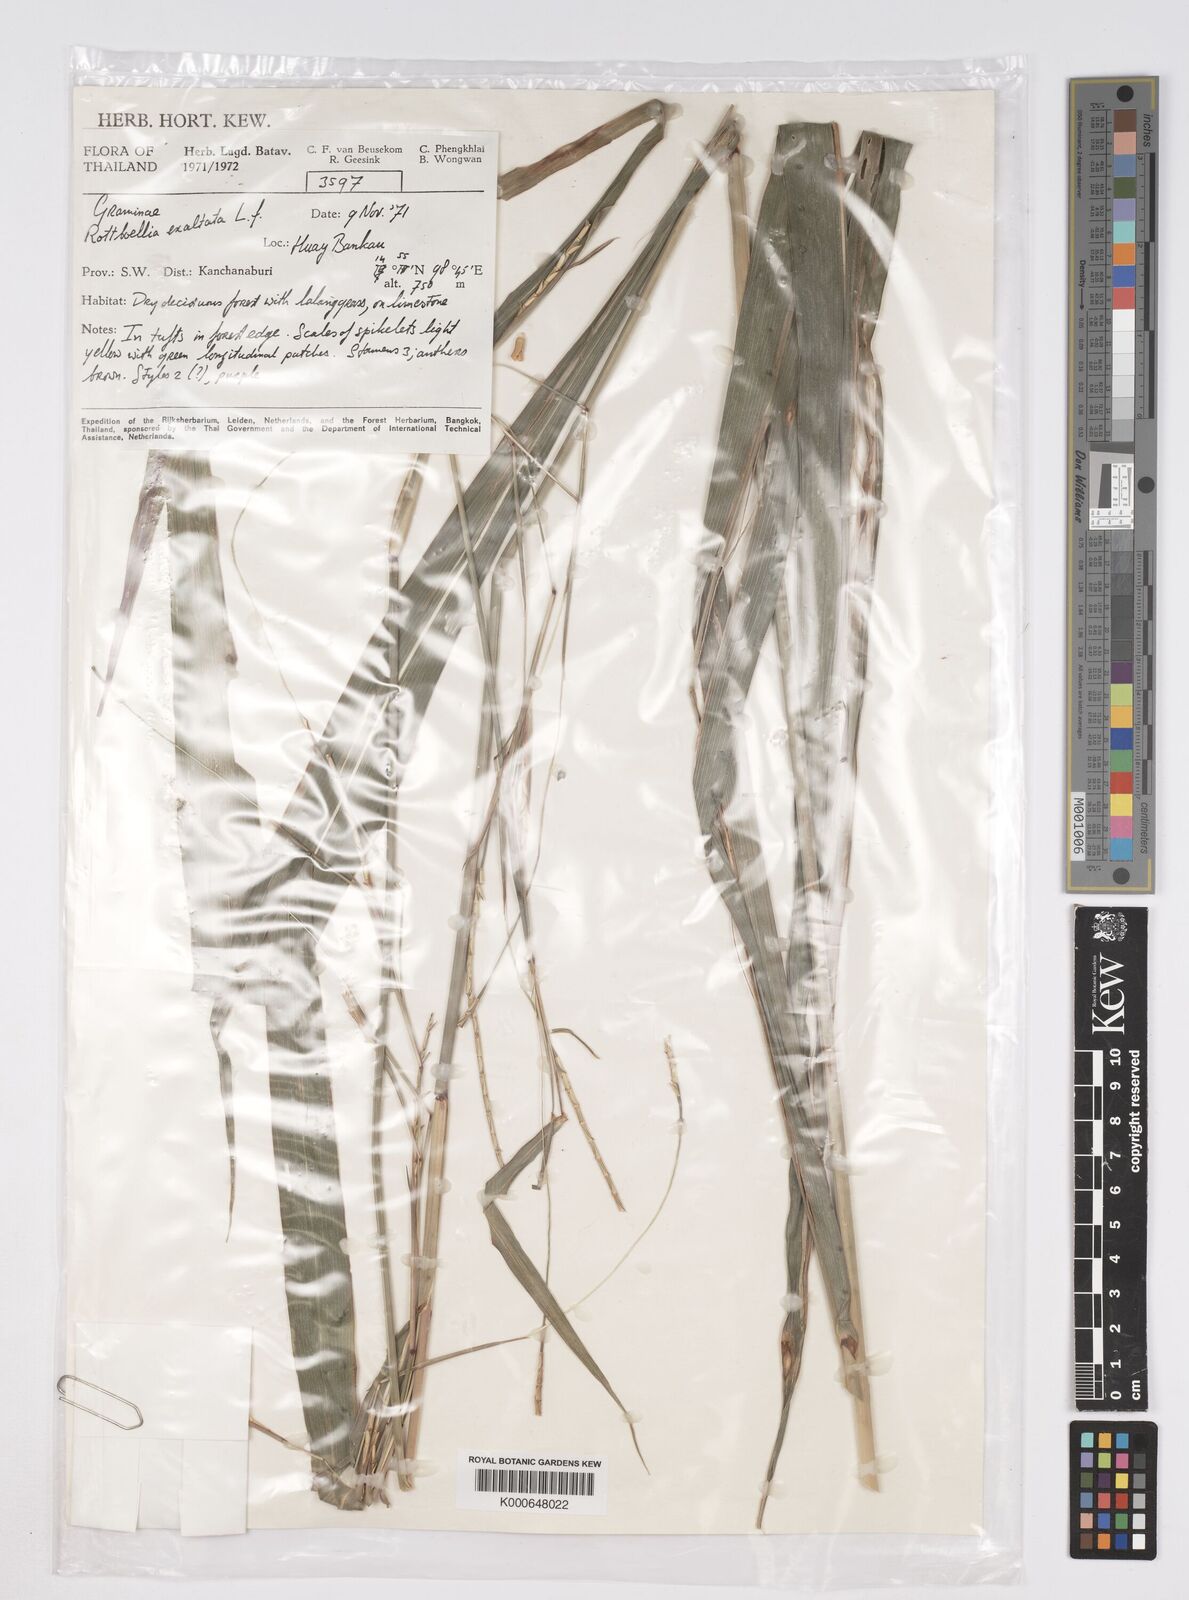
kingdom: Plantae
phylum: Tracheophyta
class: Liliopsida
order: Poales
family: Poaceae
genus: Rottboellia
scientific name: Rottboellia cochinchinensis
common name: Itchgrass
